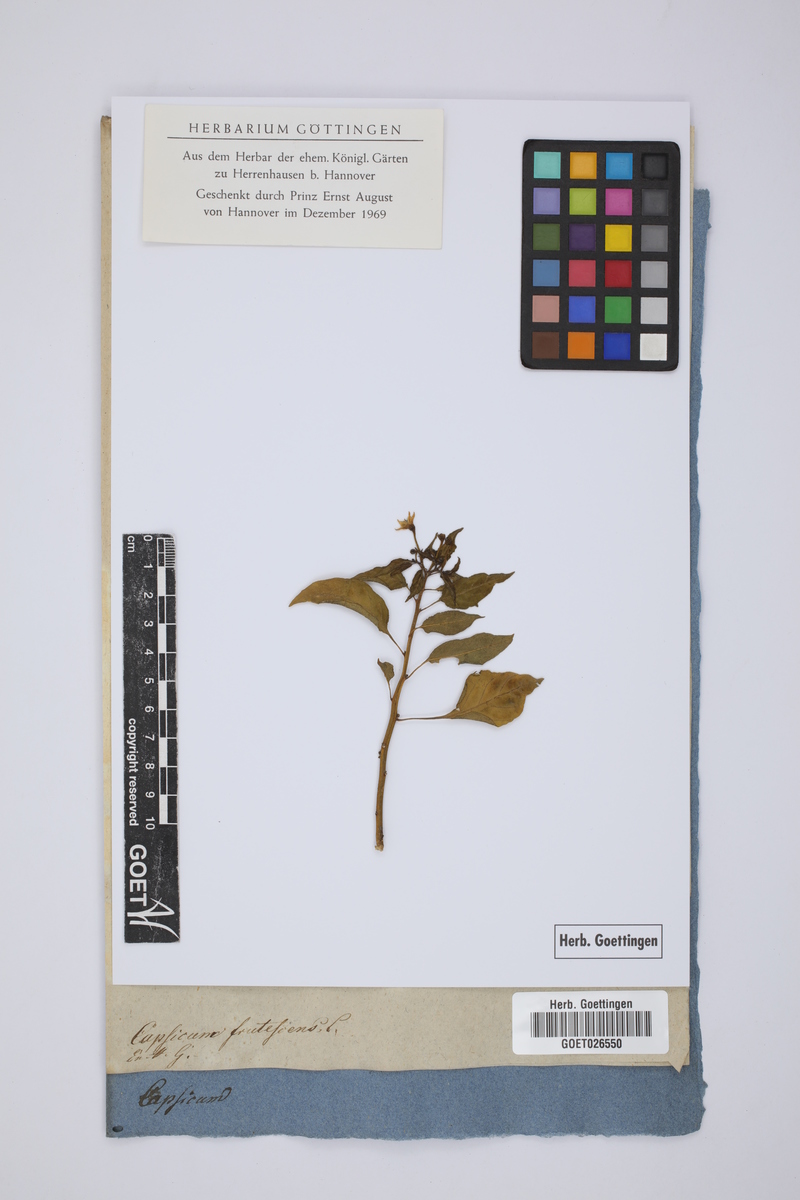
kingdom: Plantae
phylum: Tracheophyta
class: Magnoliopsida
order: Solanales
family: Solanaceae
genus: Capsicum
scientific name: Capsicum annuum
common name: Sweet pepper
